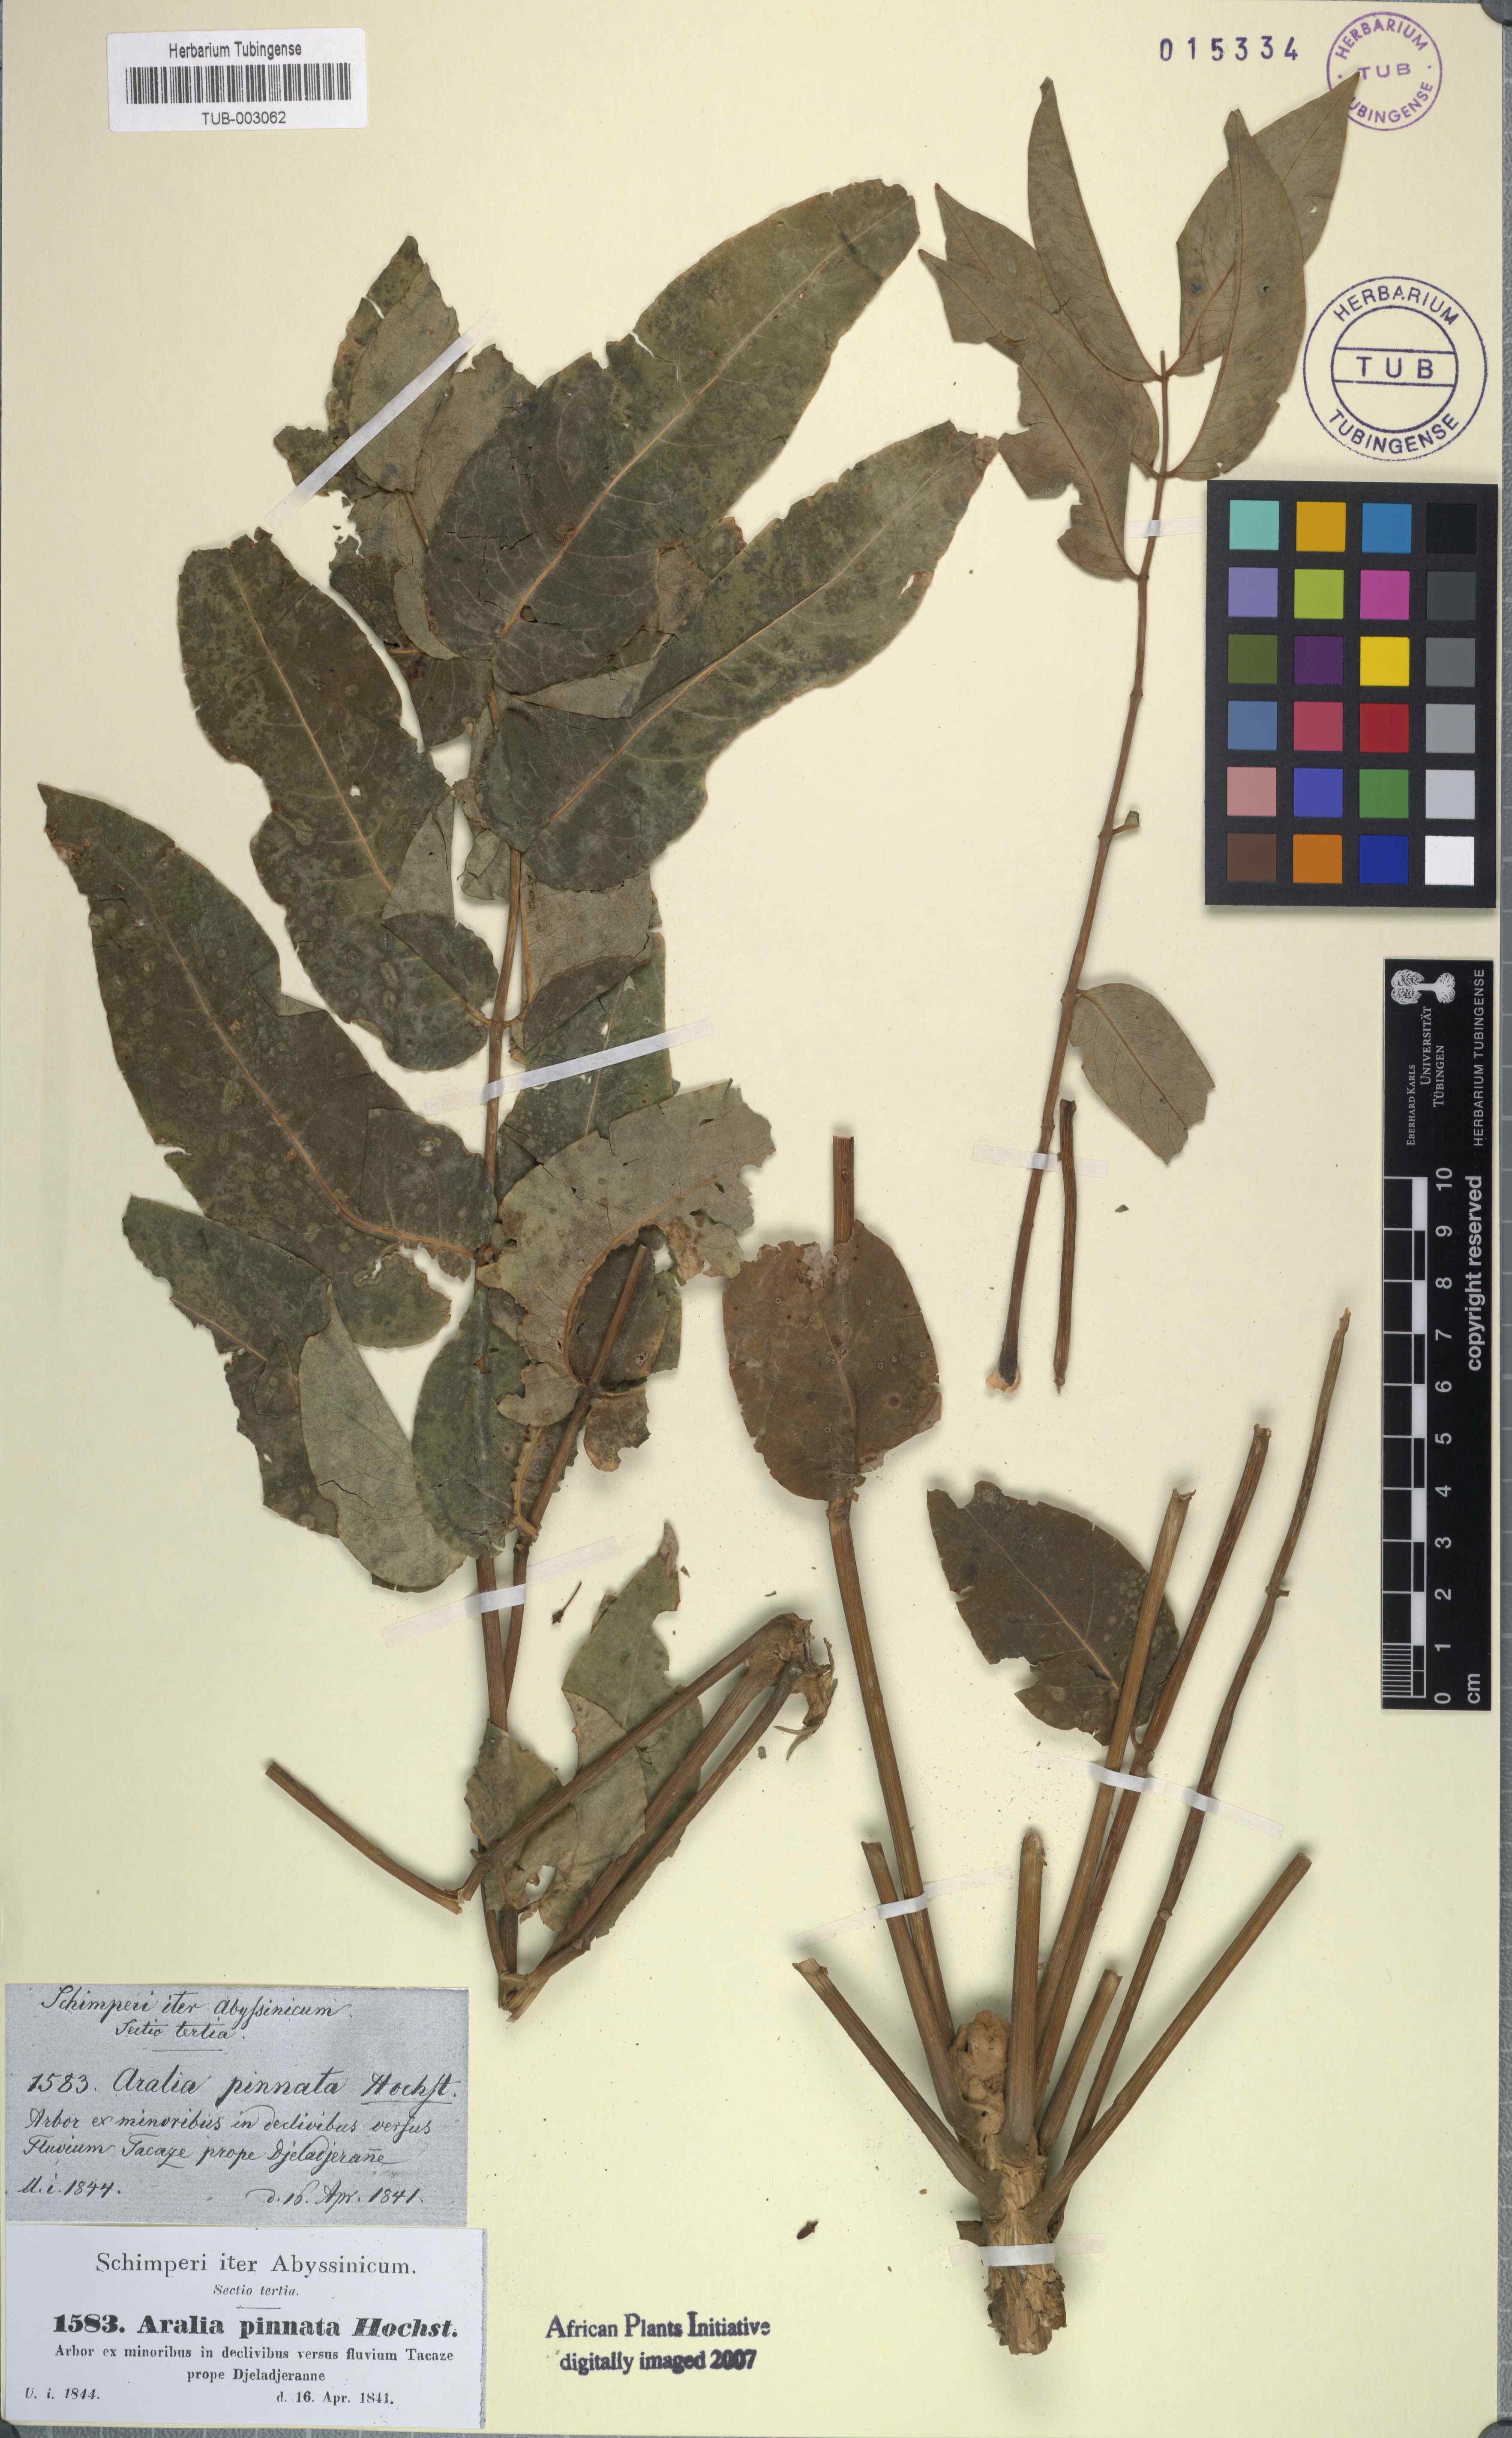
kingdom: Plantae
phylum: Tracheophyta
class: Magnoliopsida
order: Apiales
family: Araliaceae
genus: Polyscias
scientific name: Polyscias farinosa
